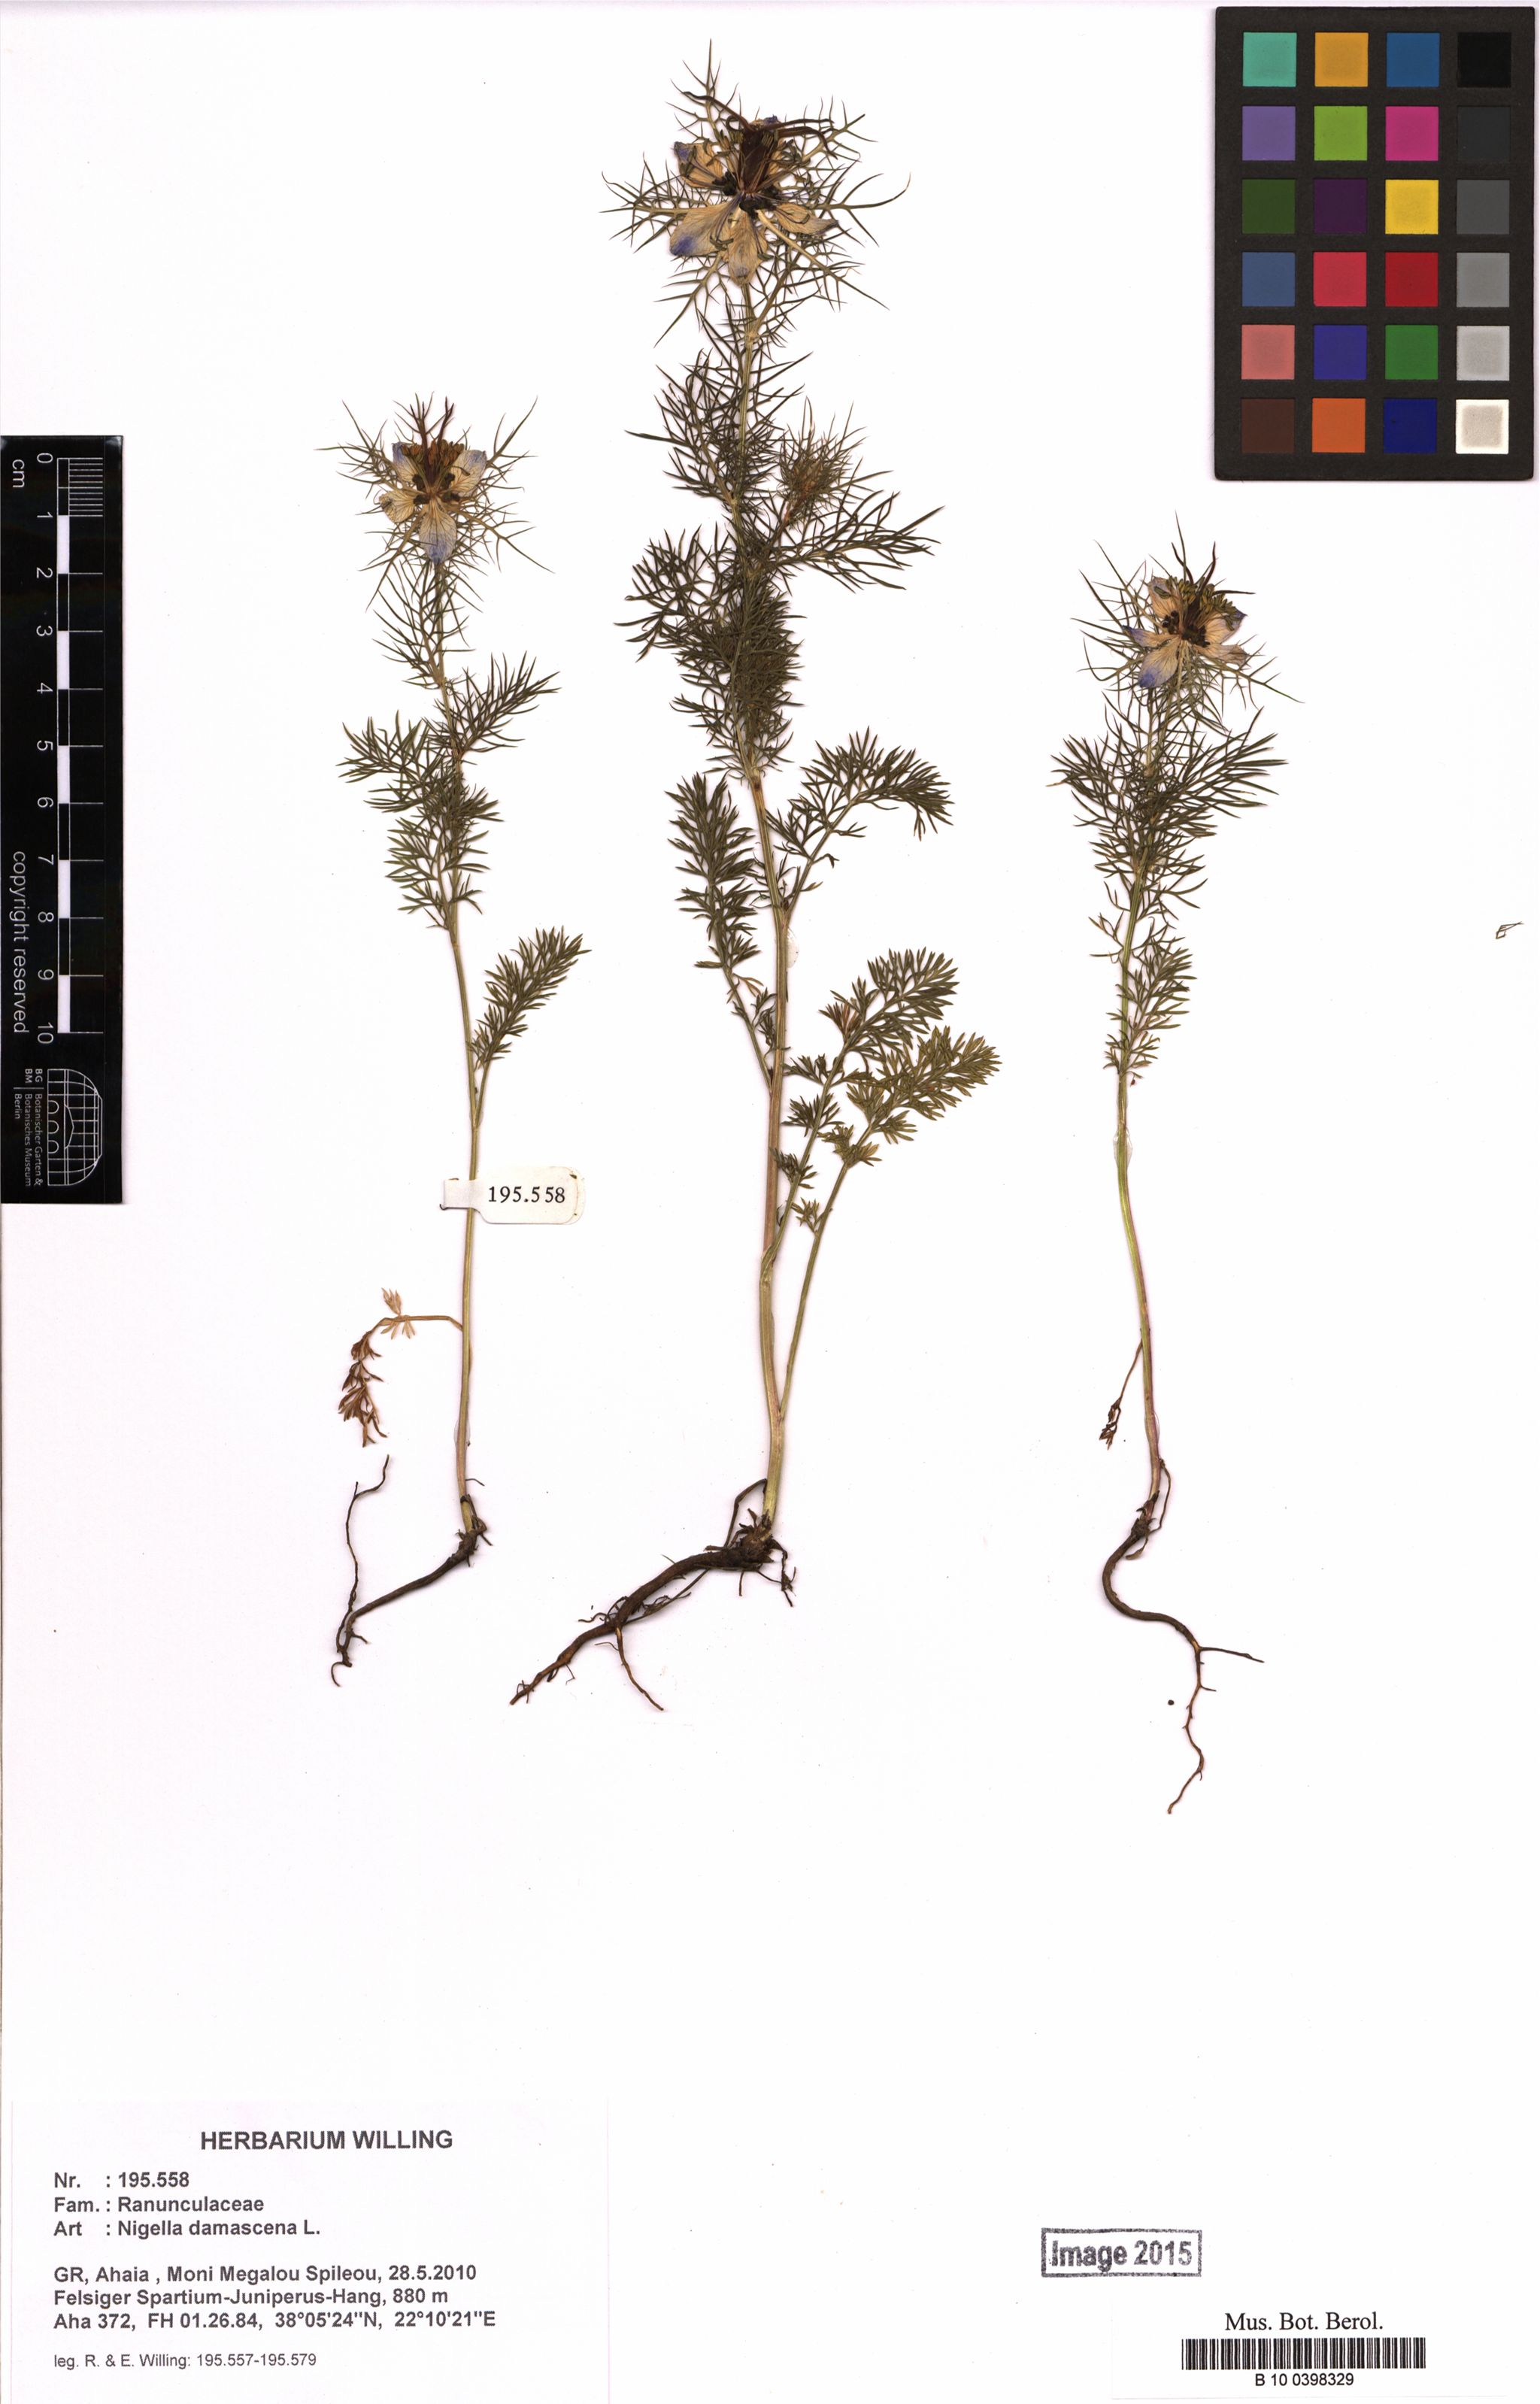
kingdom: Plantae
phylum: Tracheophyta
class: Magnoliopsida
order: Ranunculales
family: Ranunculaceae
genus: Nigella
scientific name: Nigella damascena
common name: Love-in-a-mist
